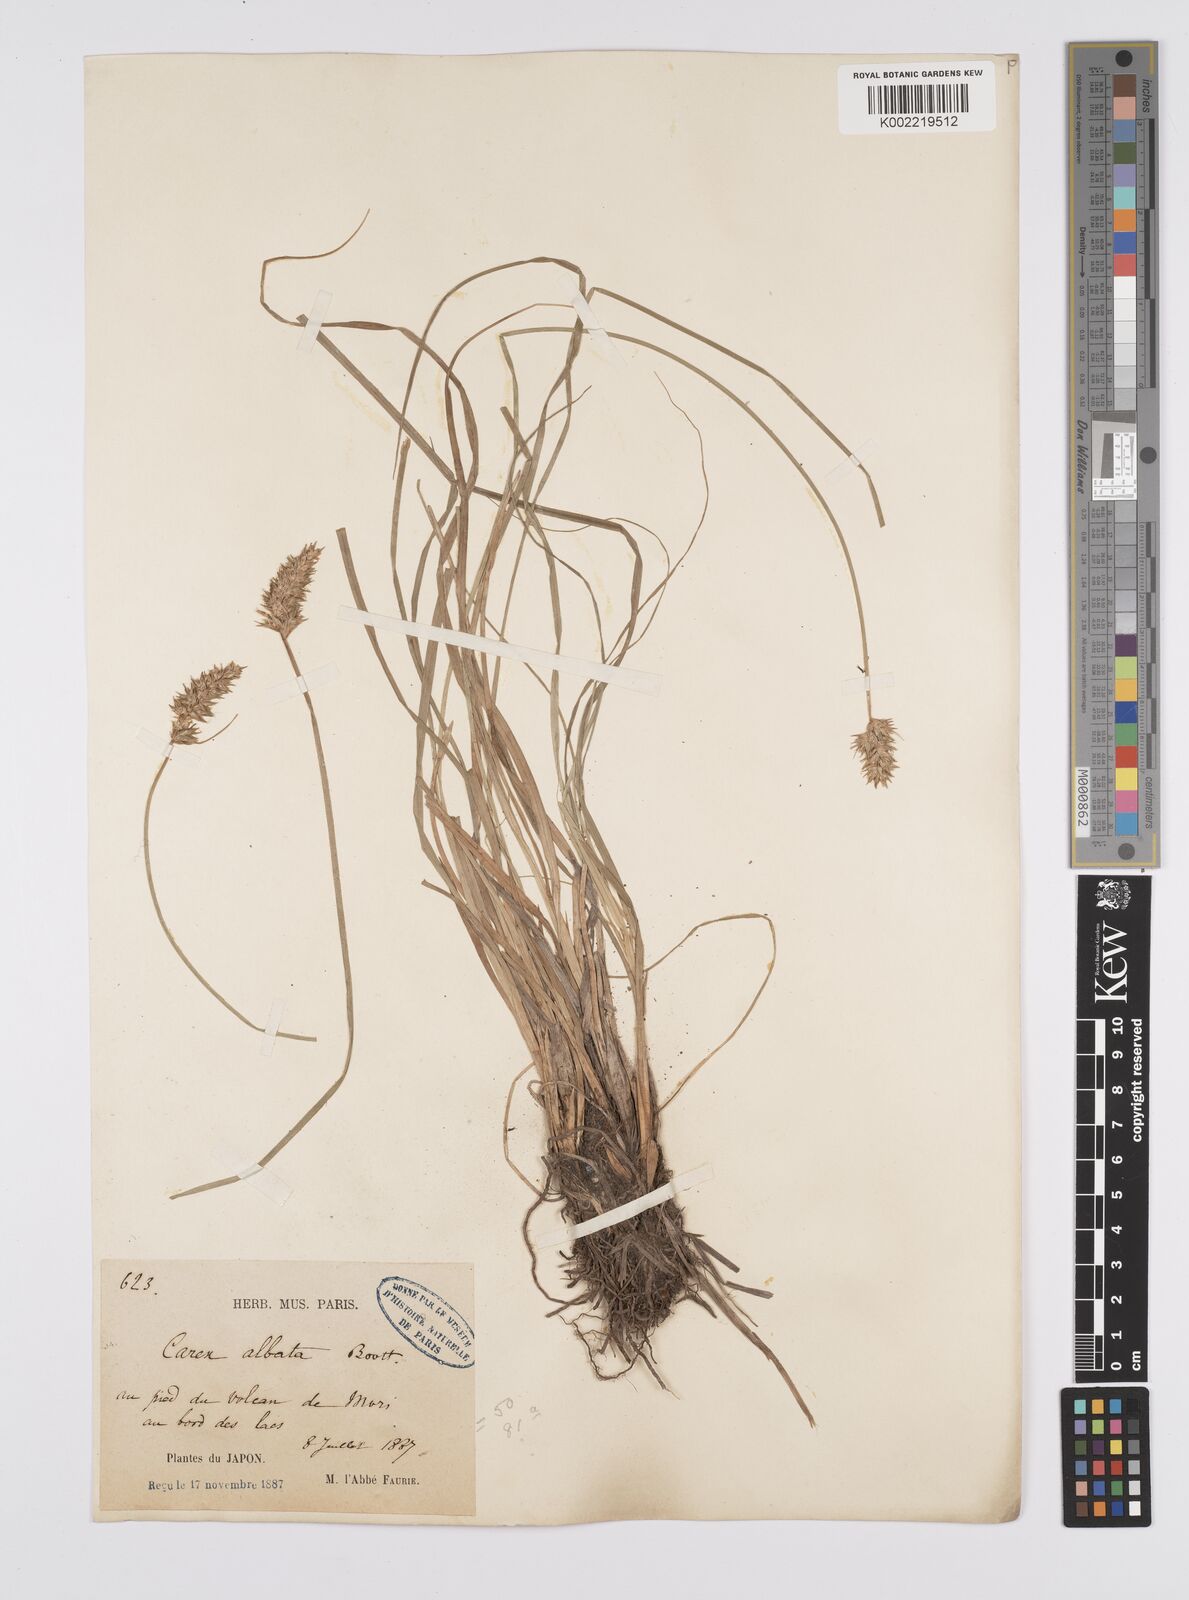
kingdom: Plantae
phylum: Tracheophyta
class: Liliopsida
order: Poales
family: Cyperaceae
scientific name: Cyperaceae
